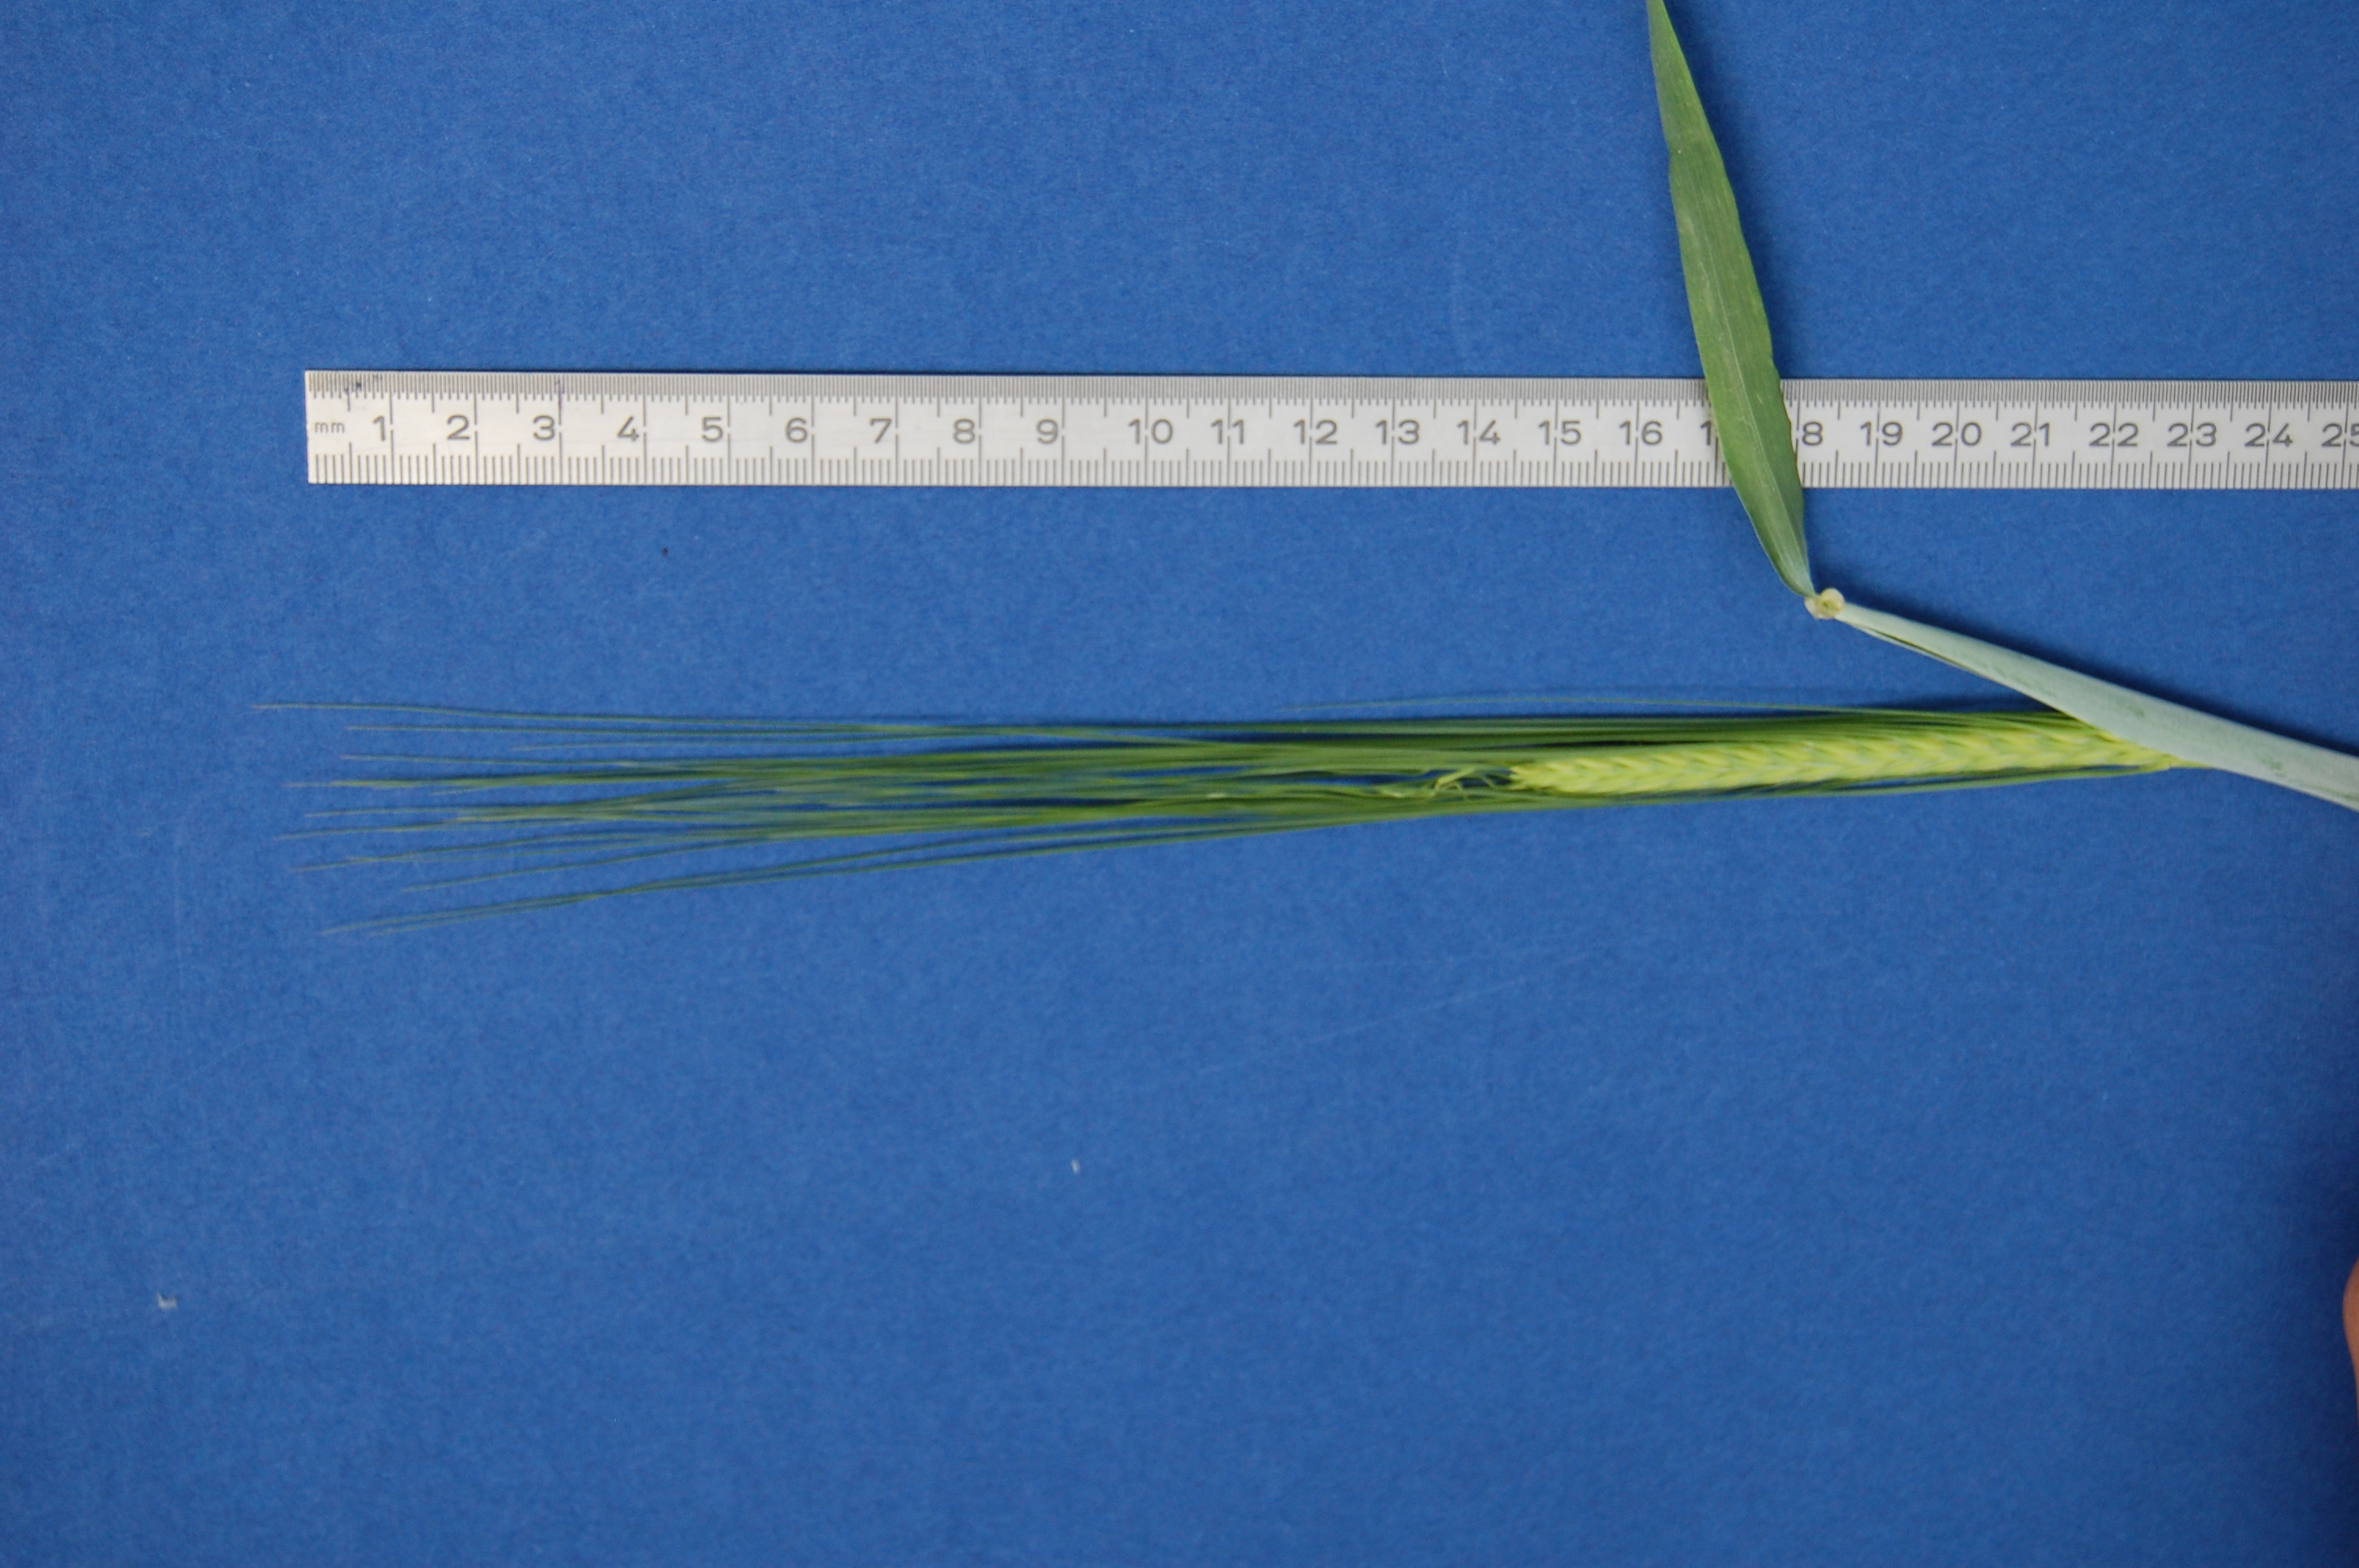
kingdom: Plantae
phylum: Tracheophyta
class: Liliopsida
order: Poales
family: Poaceae
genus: Hordeum
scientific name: Hordeum vulgare
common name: Common barley
